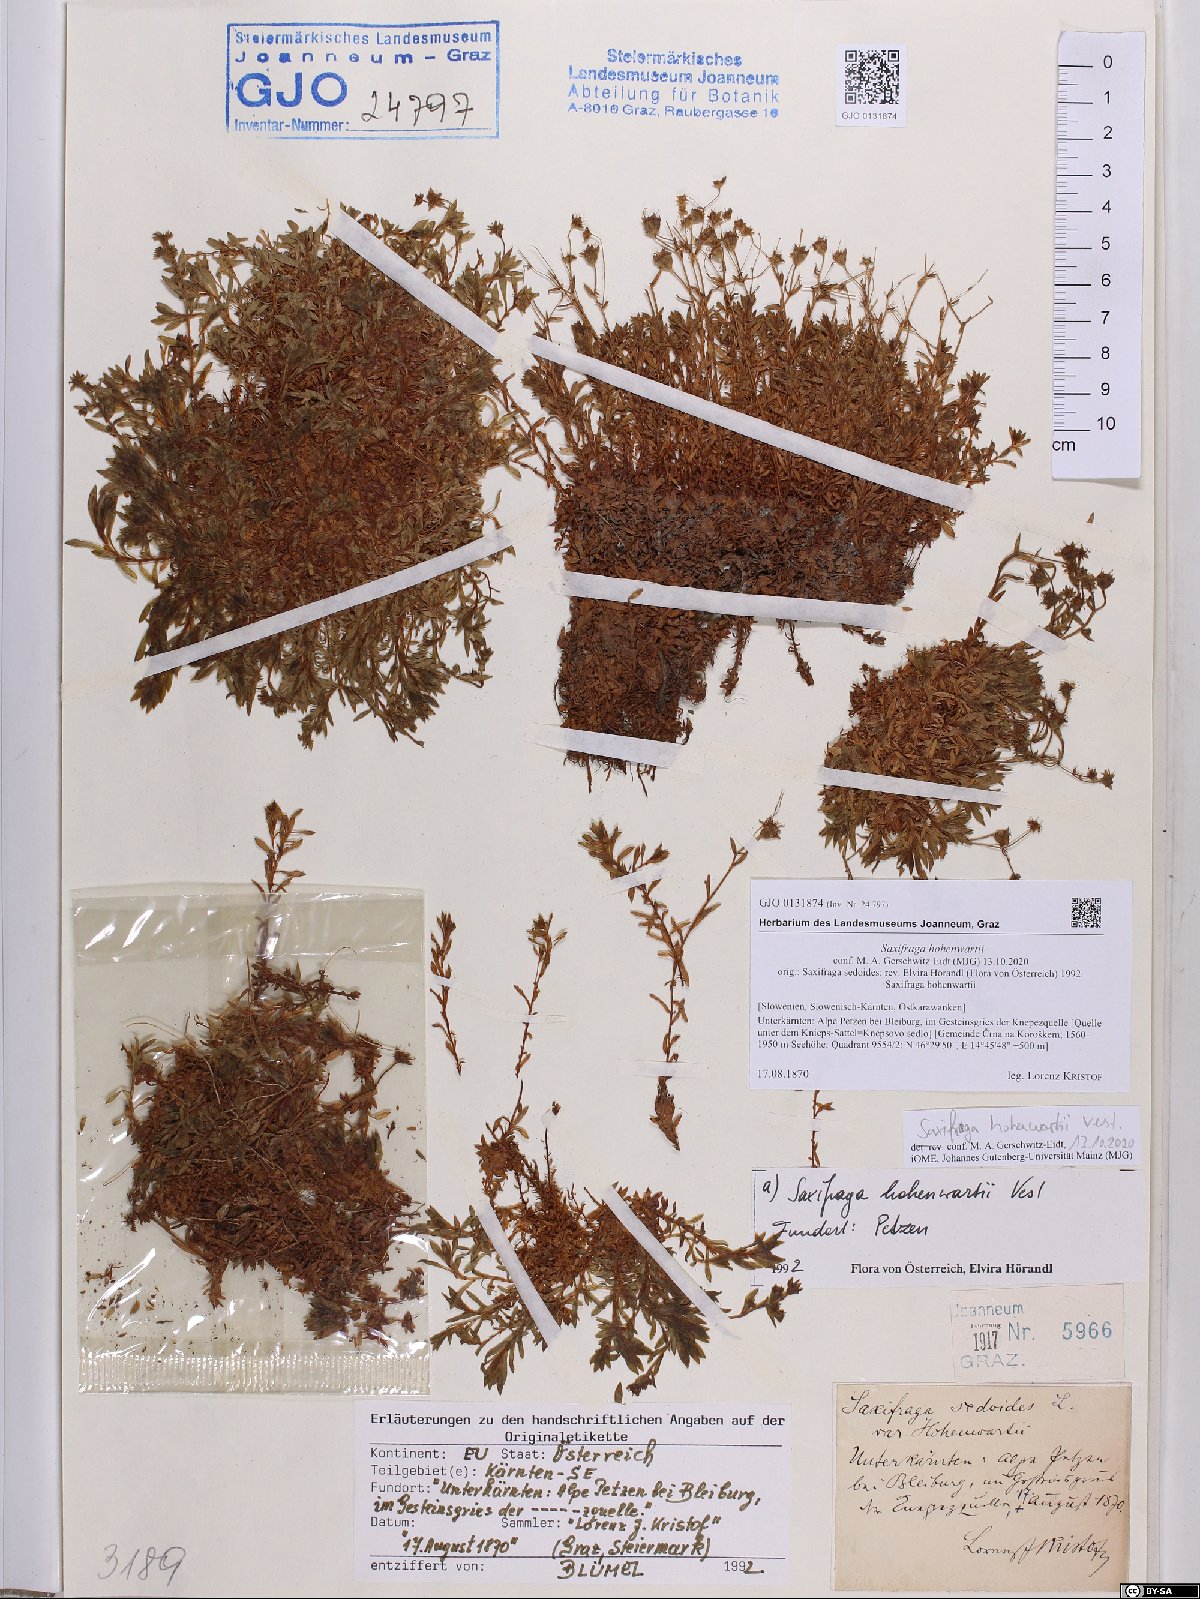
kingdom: Plantae
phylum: Tracheophyta
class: Magnoliopsida
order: Saxifragales
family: Saxifragaceae
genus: Saxifraga
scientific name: Saxifraga hohenwartii
